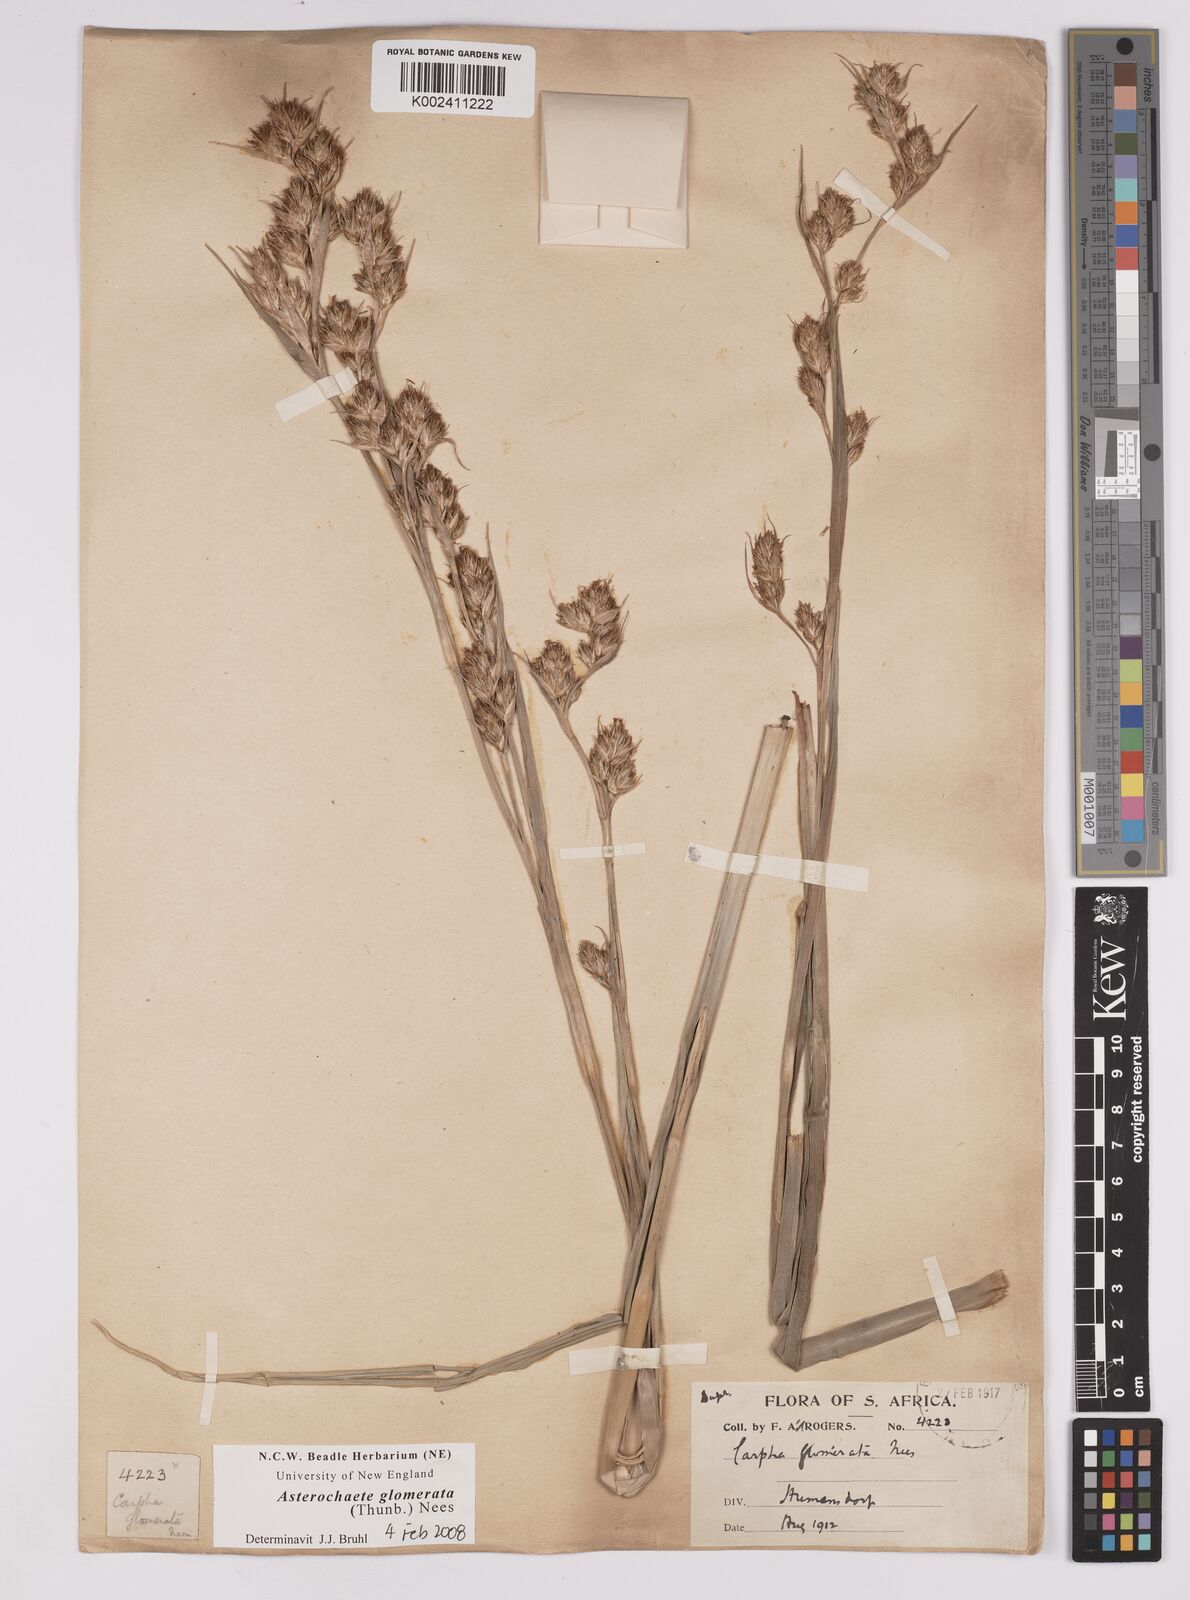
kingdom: Plantae
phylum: Tracheophyta
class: Liliopsida
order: Poales
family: Cyperaceae
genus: Carpha
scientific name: Carpha glomerata
